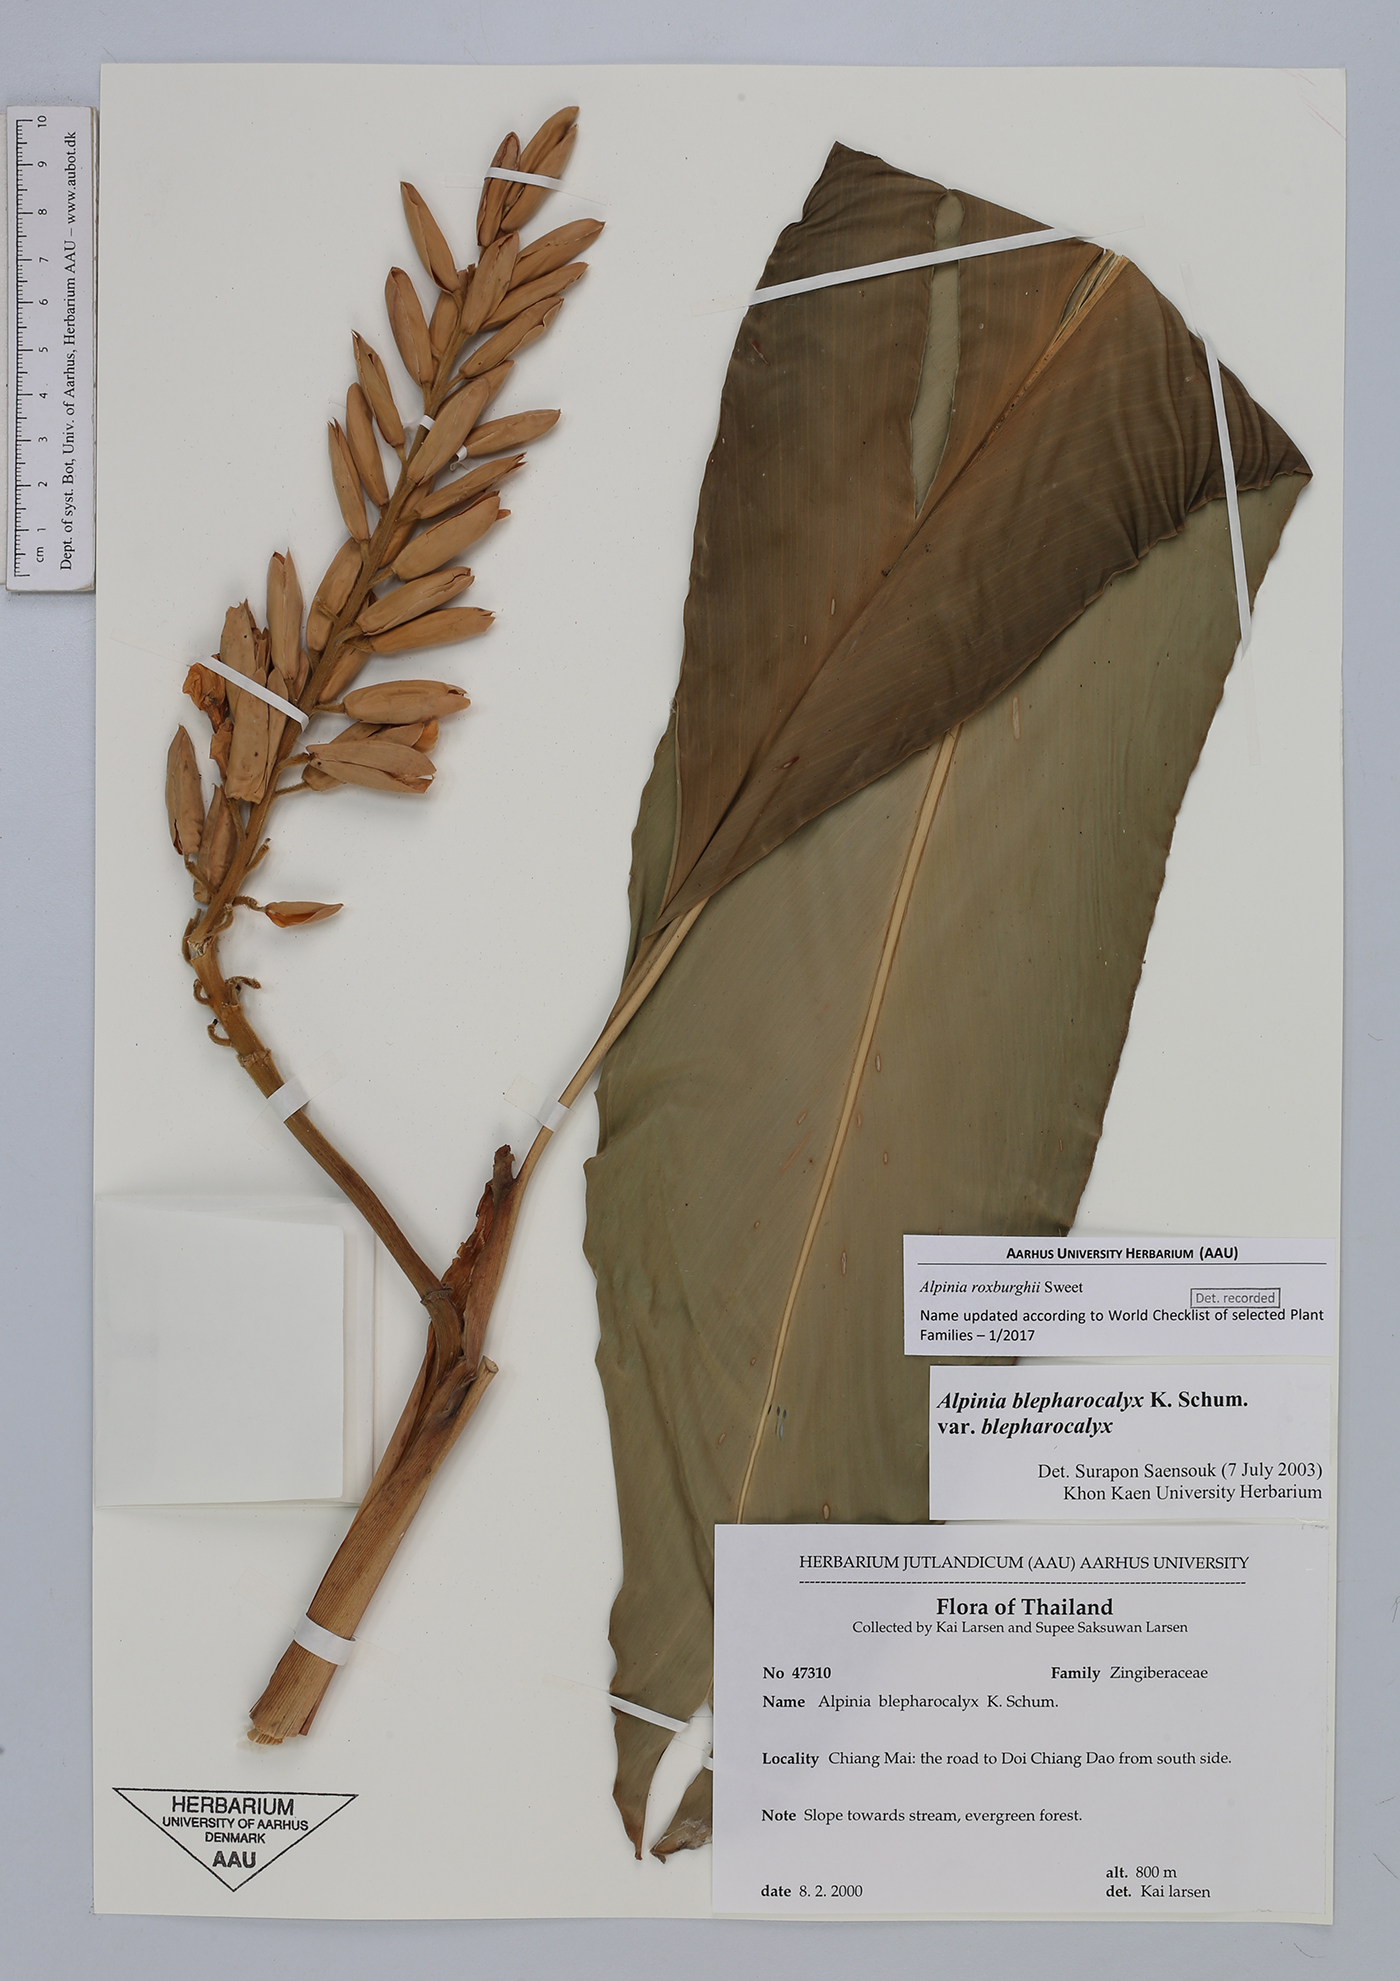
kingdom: Plantae
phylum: Tracheophyta
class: Liliopsida
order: Zingiberales
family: Zingiberaceae
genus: Alpinia
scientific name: Alpinia roxburghii
